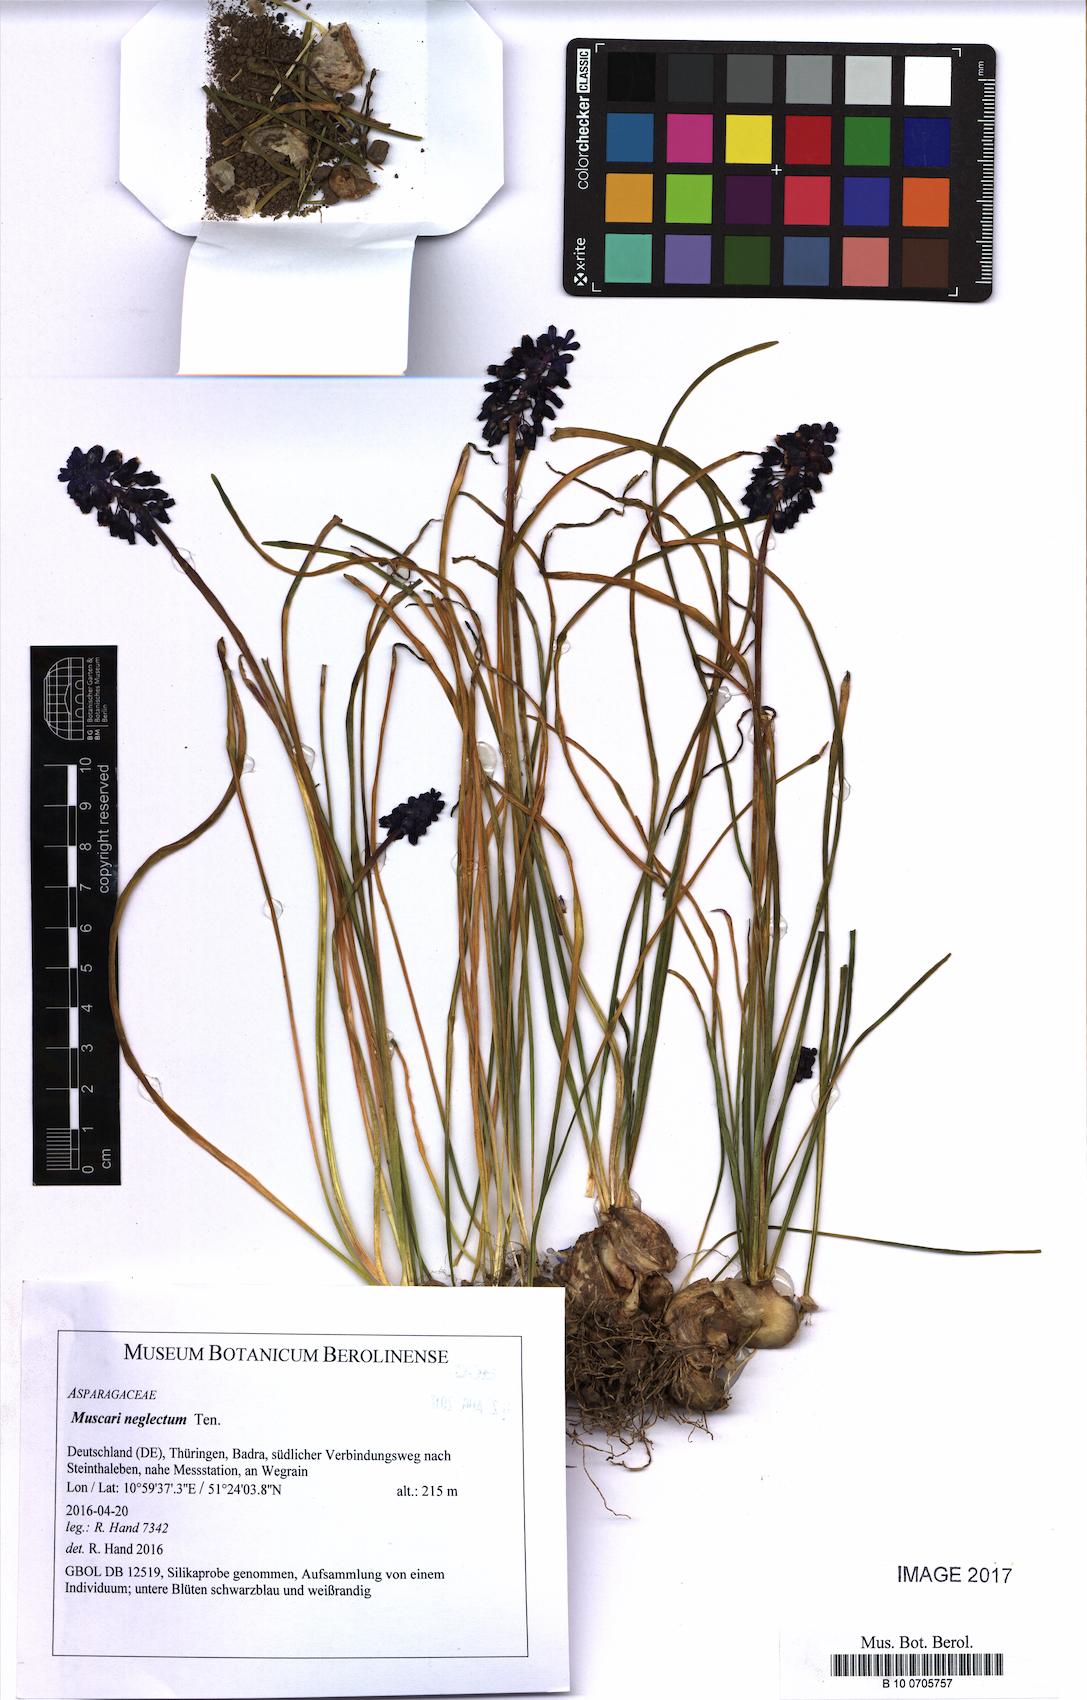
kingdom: Plantae
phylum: Tracheophyta
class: Liliopsida
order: Asparagales
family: Asparagaceae
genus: Muscari
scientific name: Muscari neglectum
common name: Grape-hyacinth
